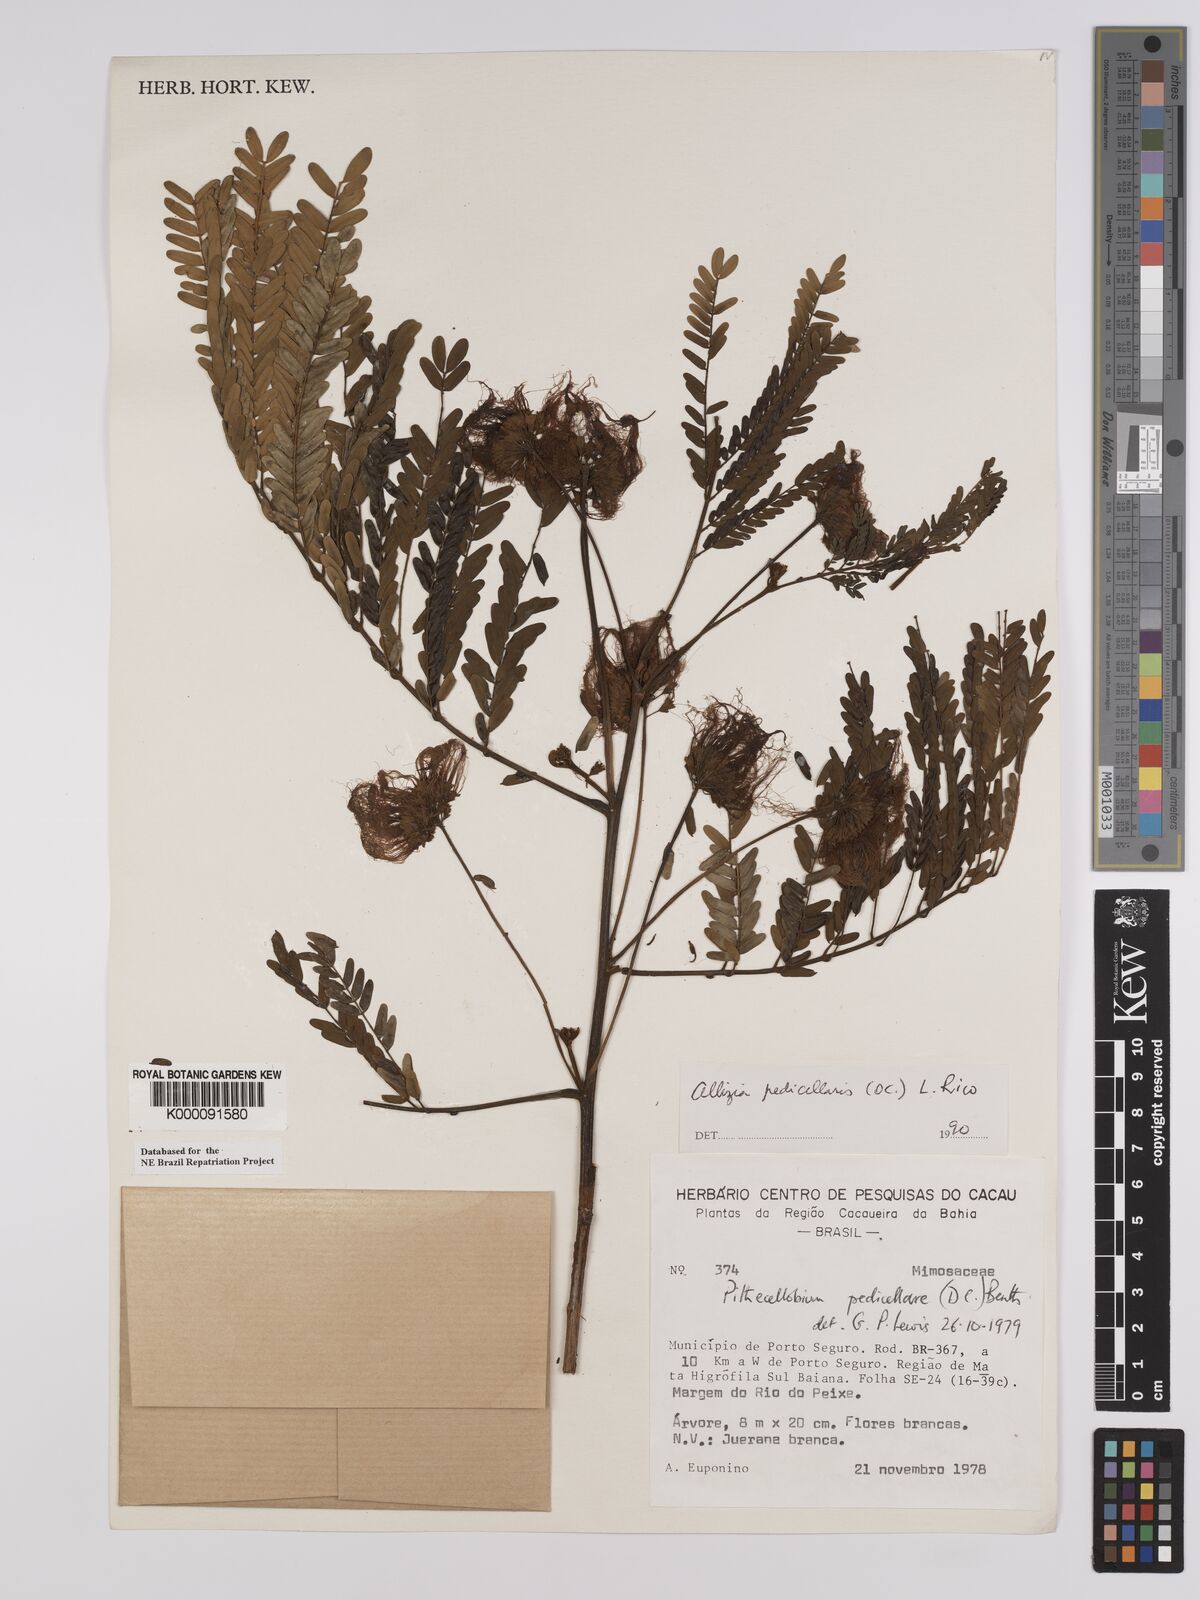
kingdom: Plantae
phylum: Tracheophyta
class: Magnoliopsida
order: Fabales
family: Fabaceae
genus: Balizia
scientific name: Balizia pedicellaris
